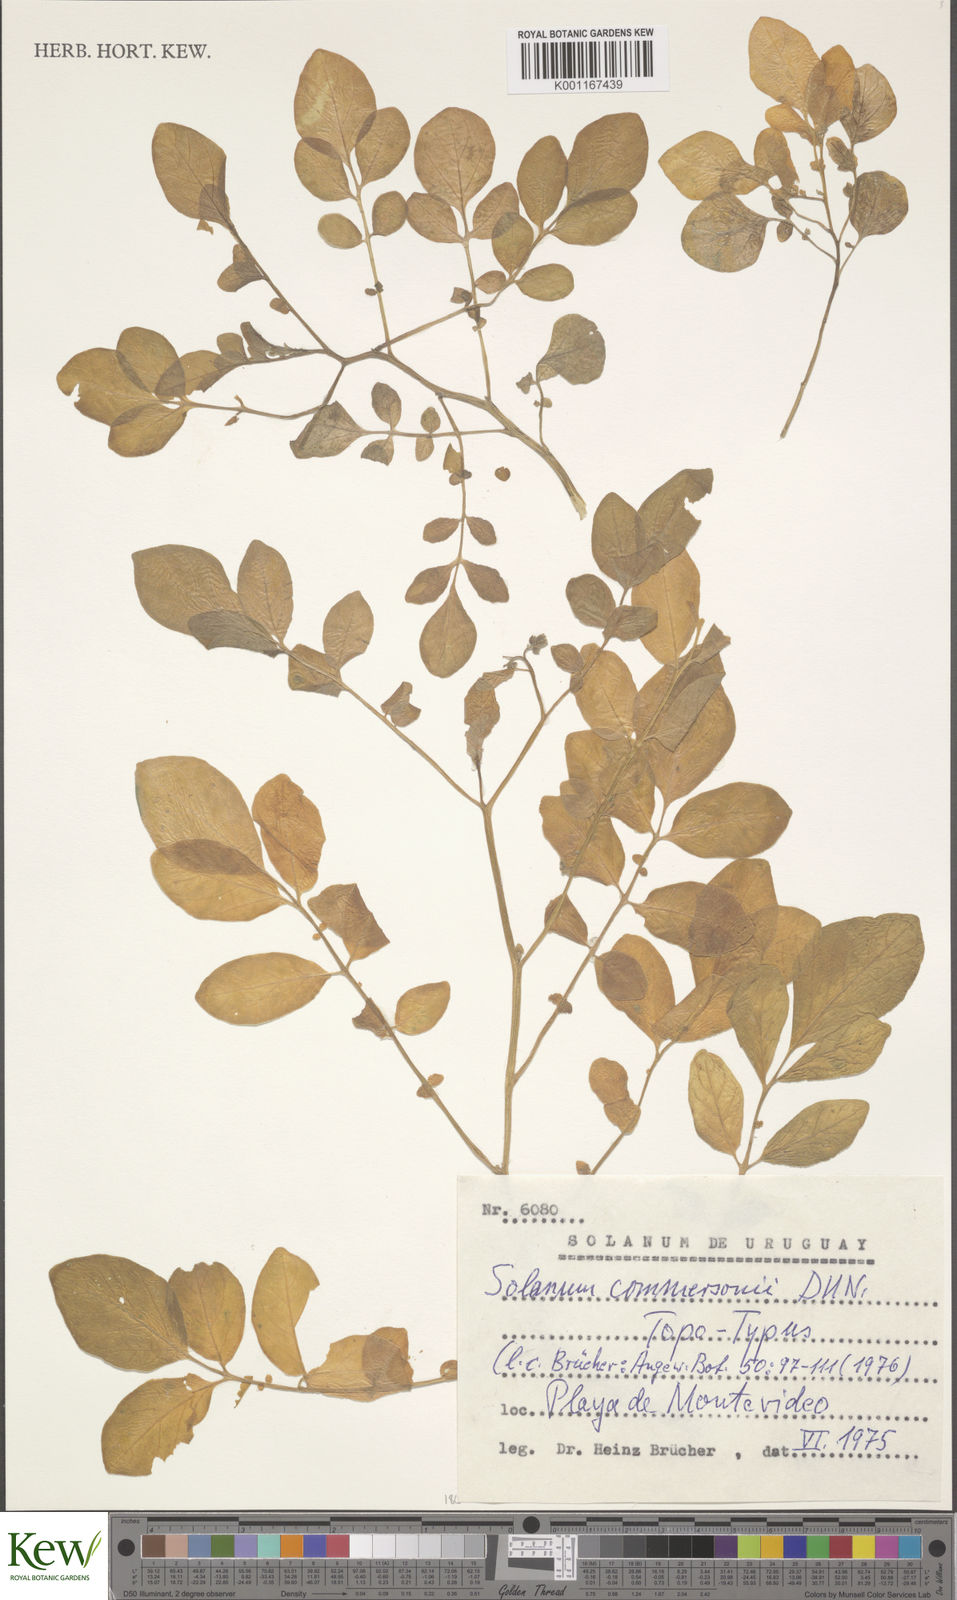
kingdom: Plantae
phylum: Tracheophyta
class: Magnoliopsida
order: Solanales
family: Solanaceae
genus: Solanum
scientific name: Solanum commersonii
